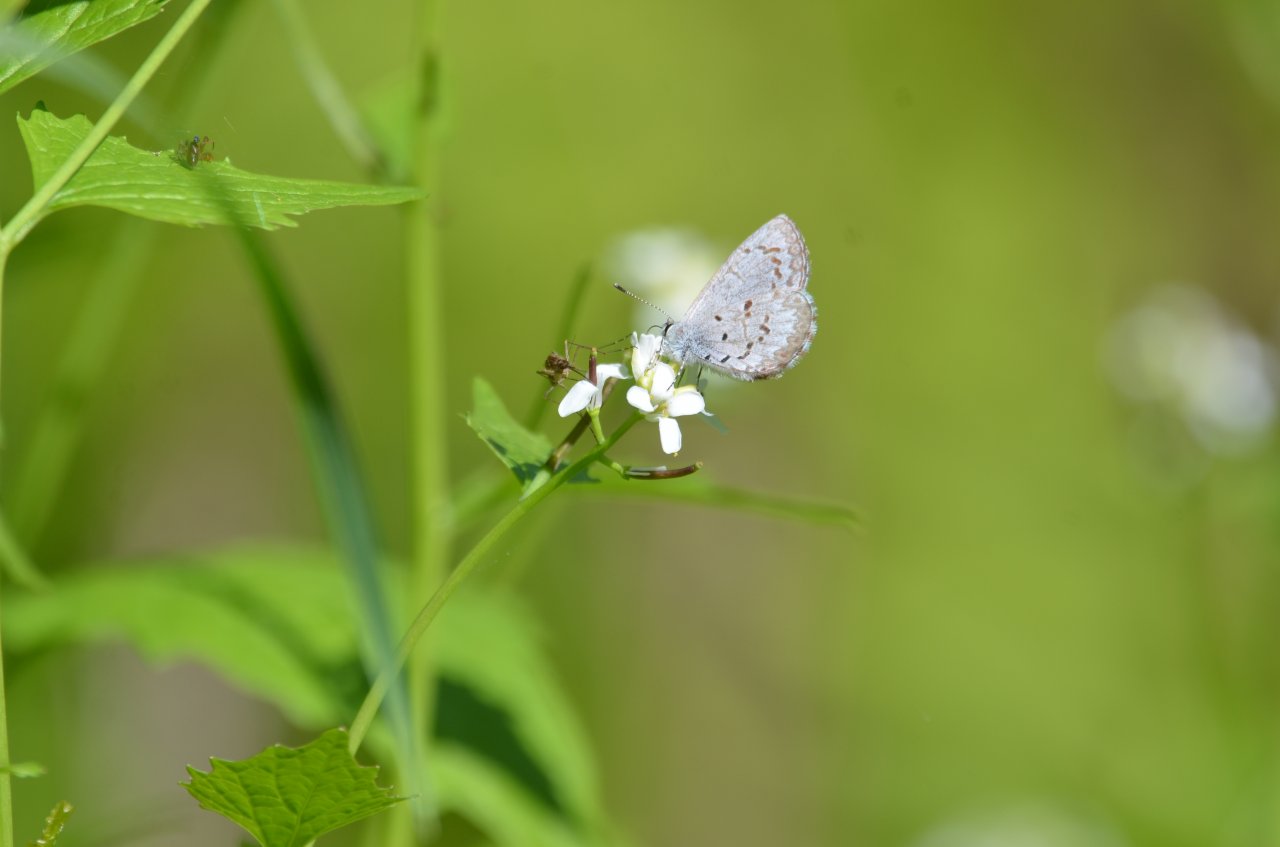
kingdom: Animalia
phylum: Arthropoda
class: Insecta
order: Lepidoptera
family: Lycaenidae
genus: Celastrina
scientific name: Celastrina
